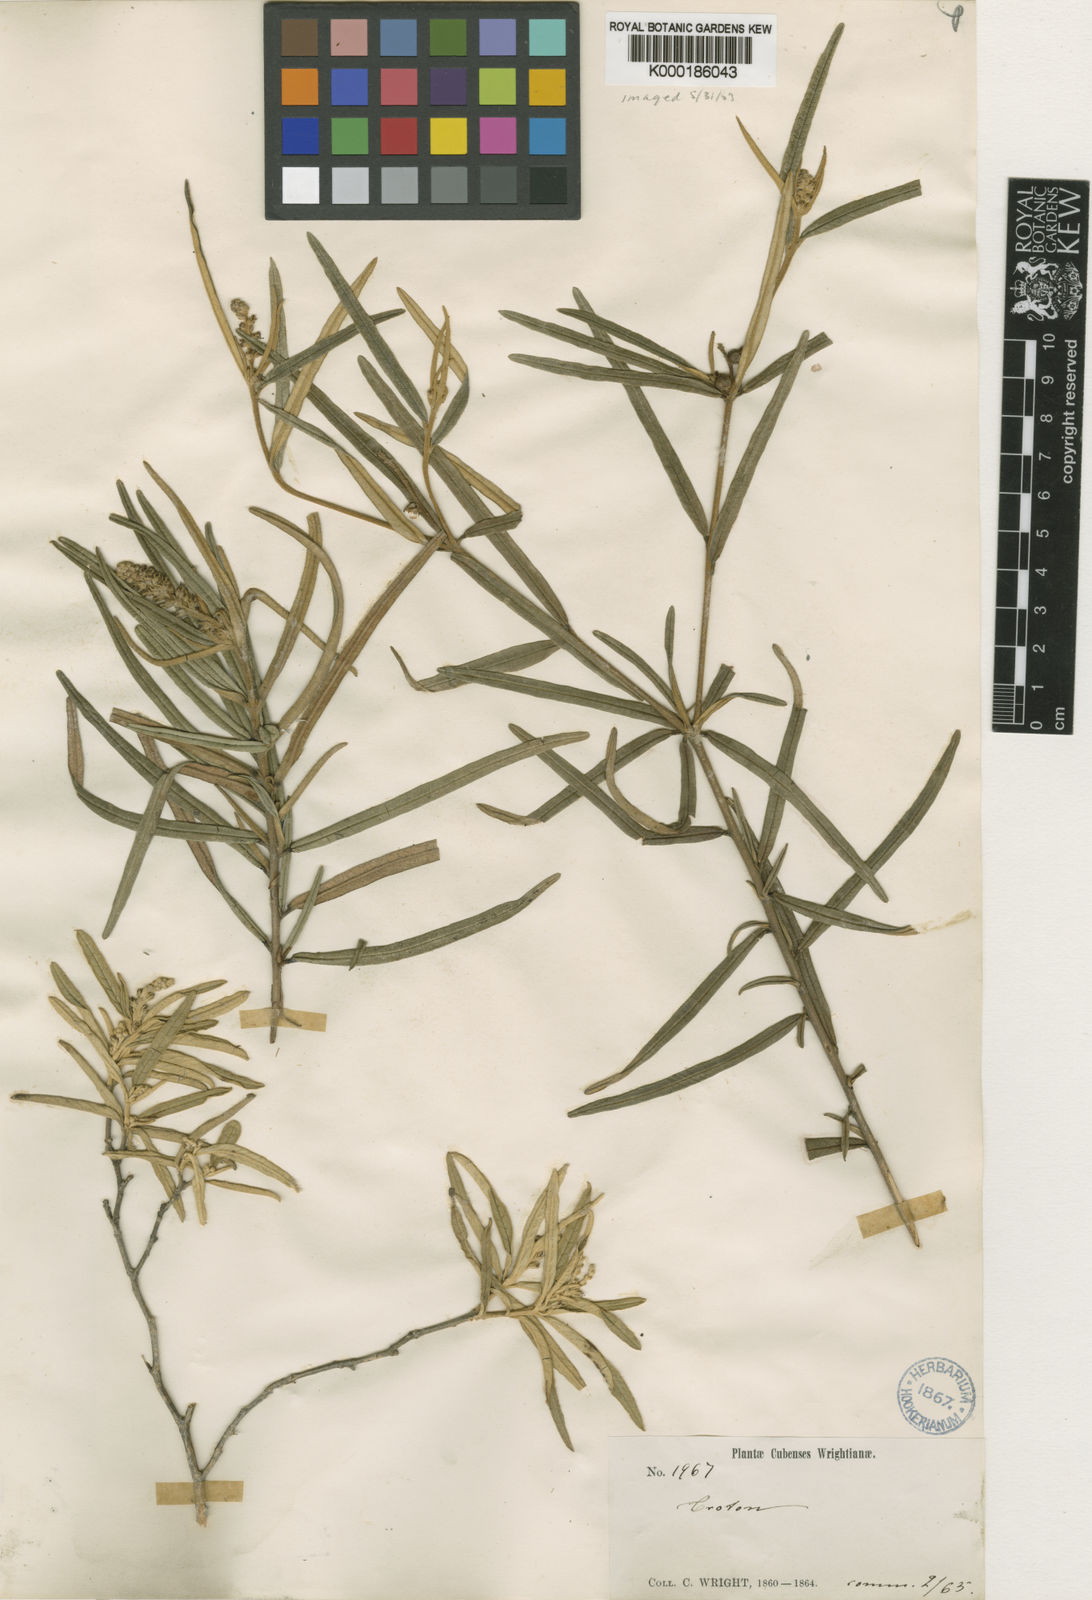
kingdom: Plantae
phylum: Tracheophyta
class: Magnoliopsida
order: Malpighiales
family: Euphorbiaceae
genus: Croton
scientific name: Croton stenophyllus
